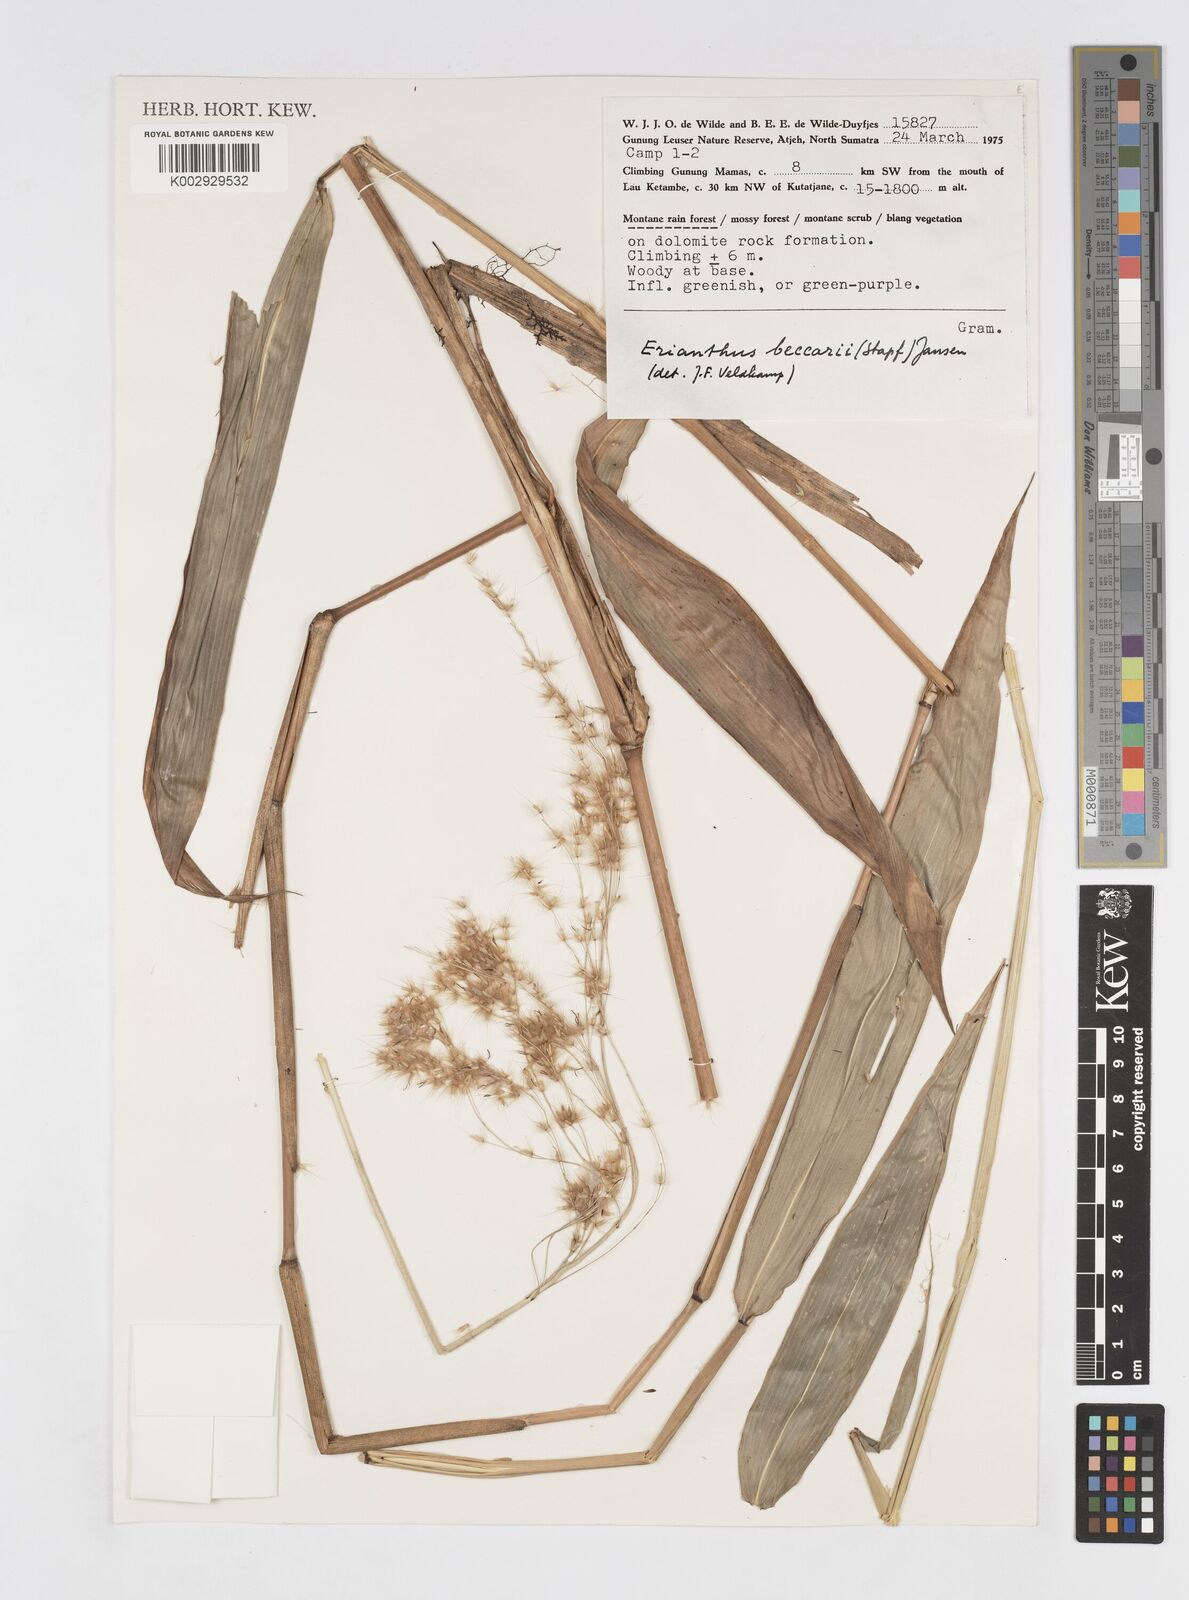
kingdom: Plantae
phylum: Tracheophyta
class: Liliopsida
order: Poales
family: Poaceae
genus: Saccharum
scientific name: Saccharum beccarii
